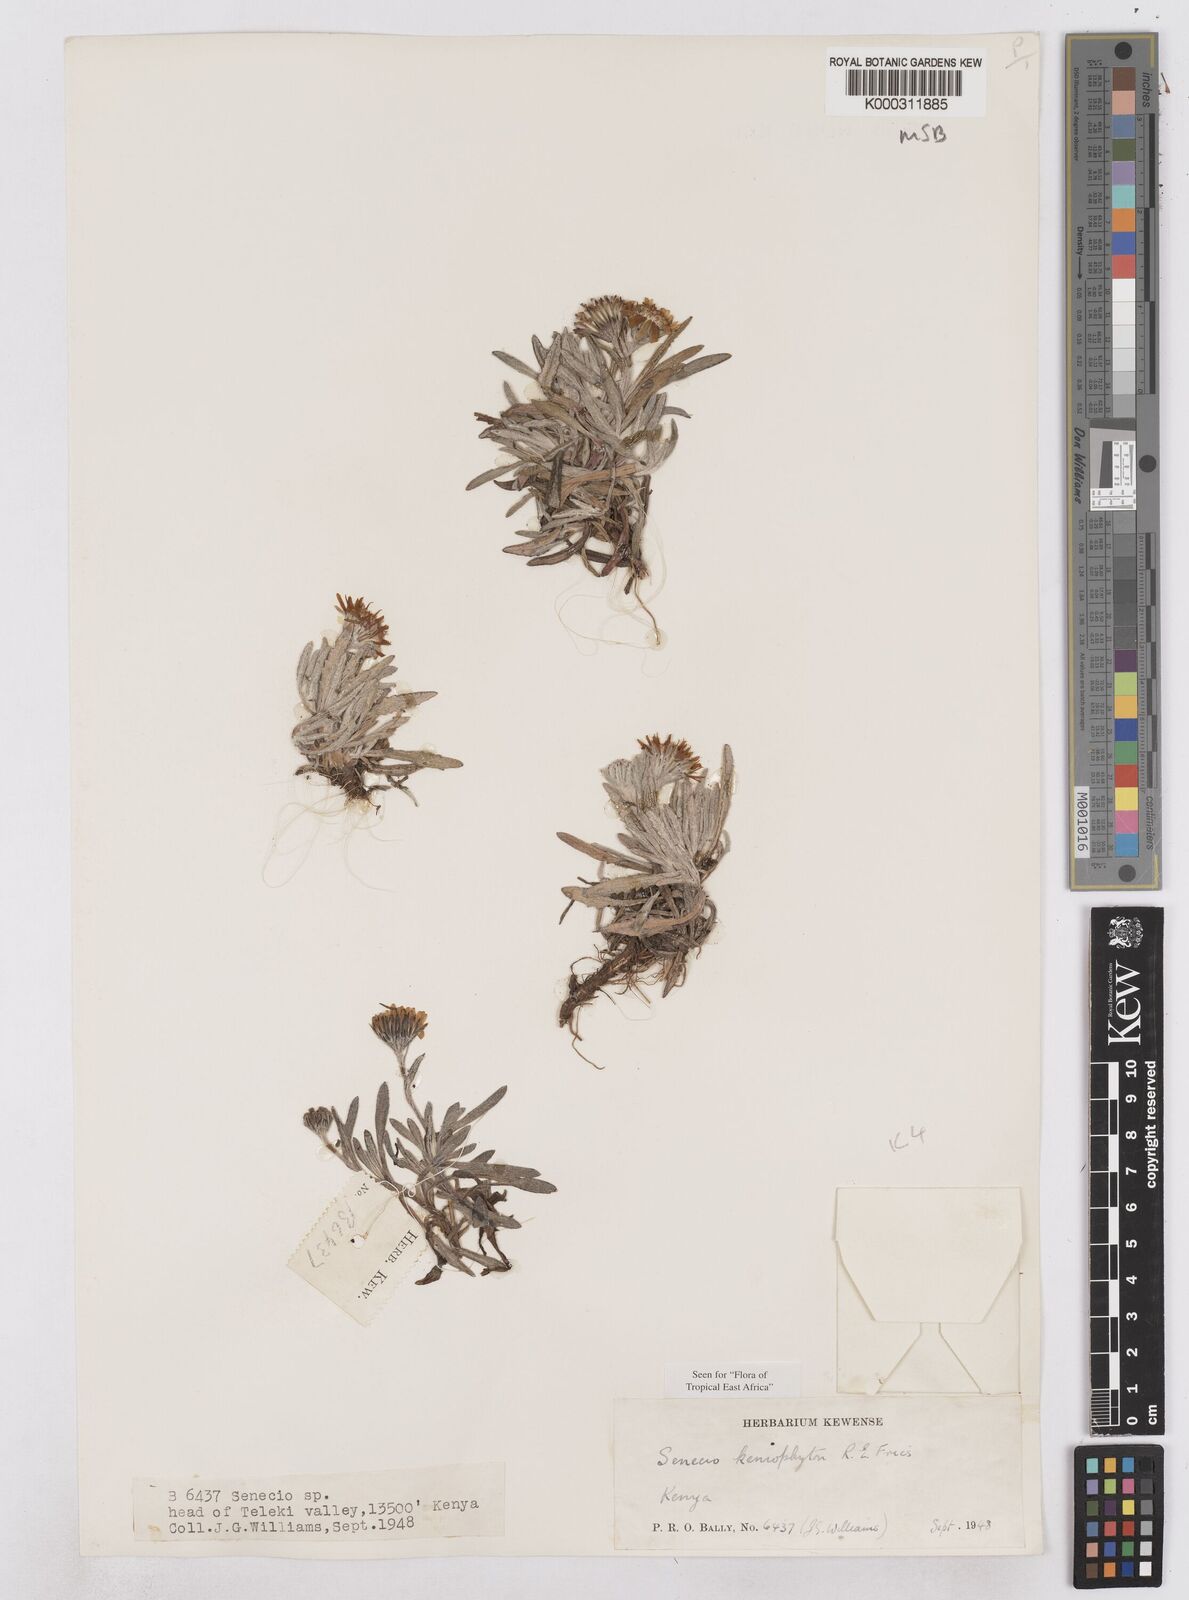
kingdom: Plantae
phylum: Tracheophyta
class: Magnoliopsida
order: Asterales
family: Asteraceae
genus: Senecio
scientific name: Senecio keniophytum
